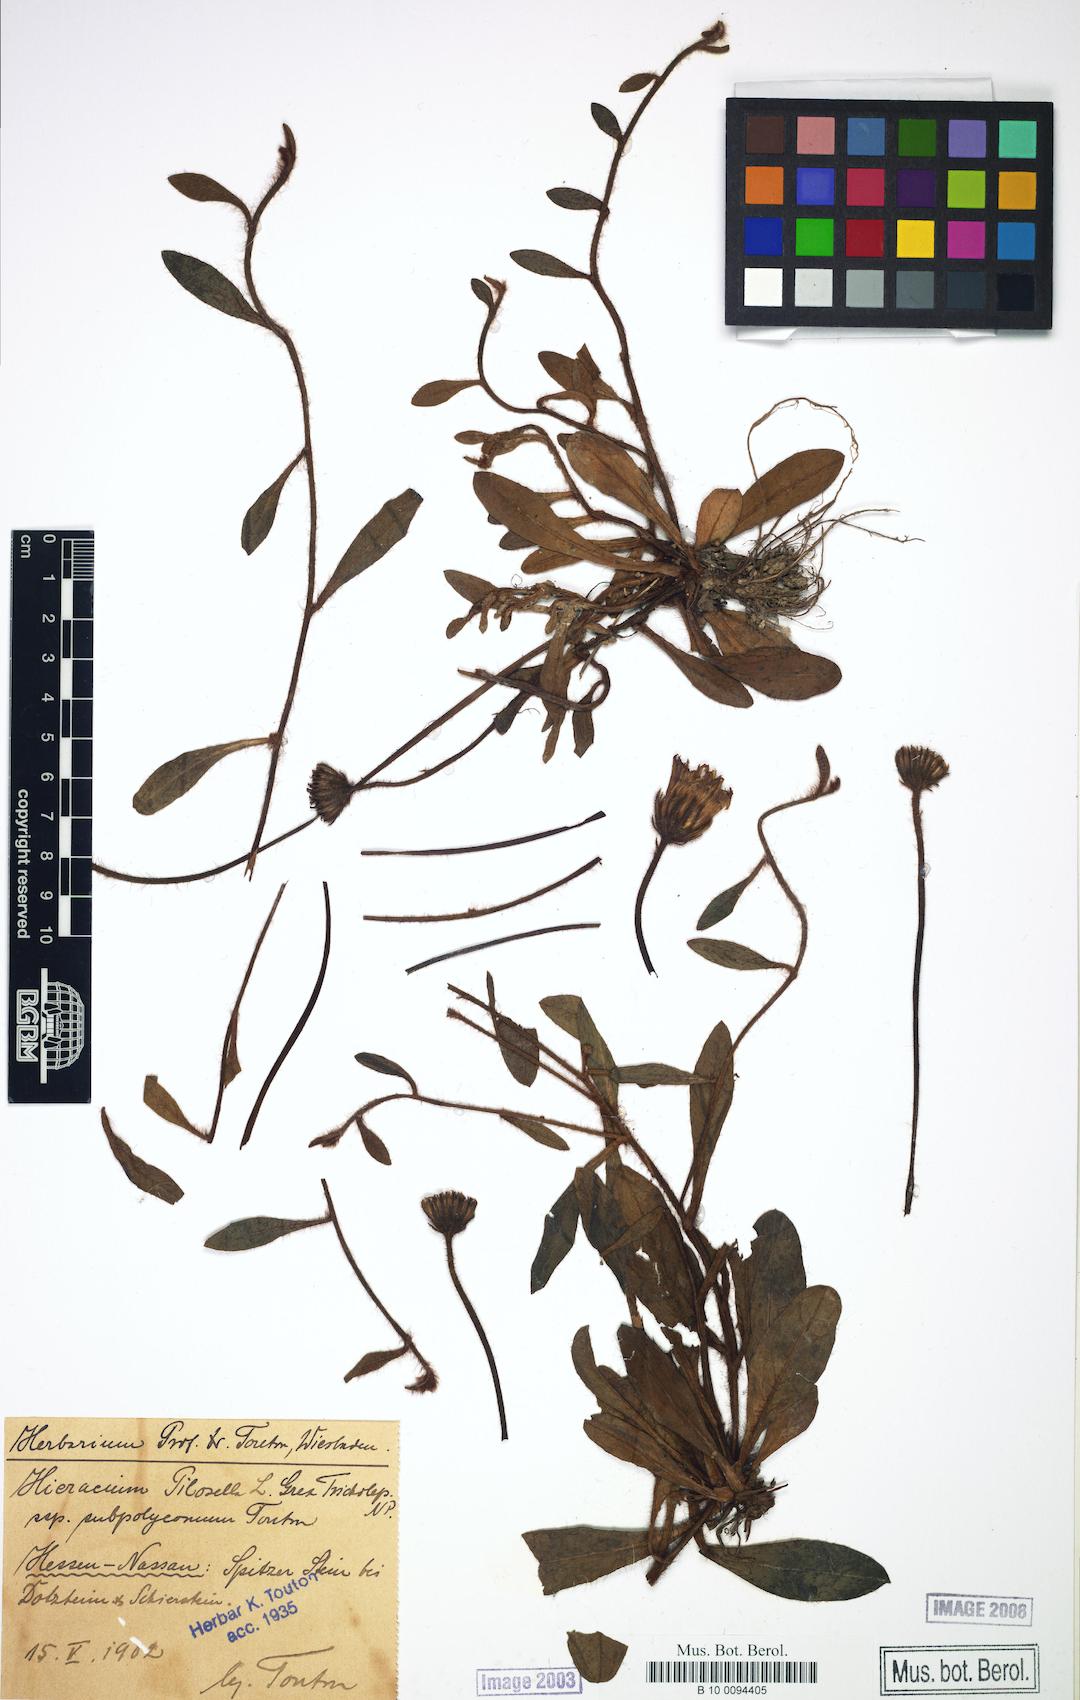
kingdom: Plantae
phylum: Tracheophyta
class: Magnoliopsida
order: Asterales
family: Asteraceae
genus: Pilosella
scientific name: Pilosella officinarum
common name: Mouse-ear hawkweed
